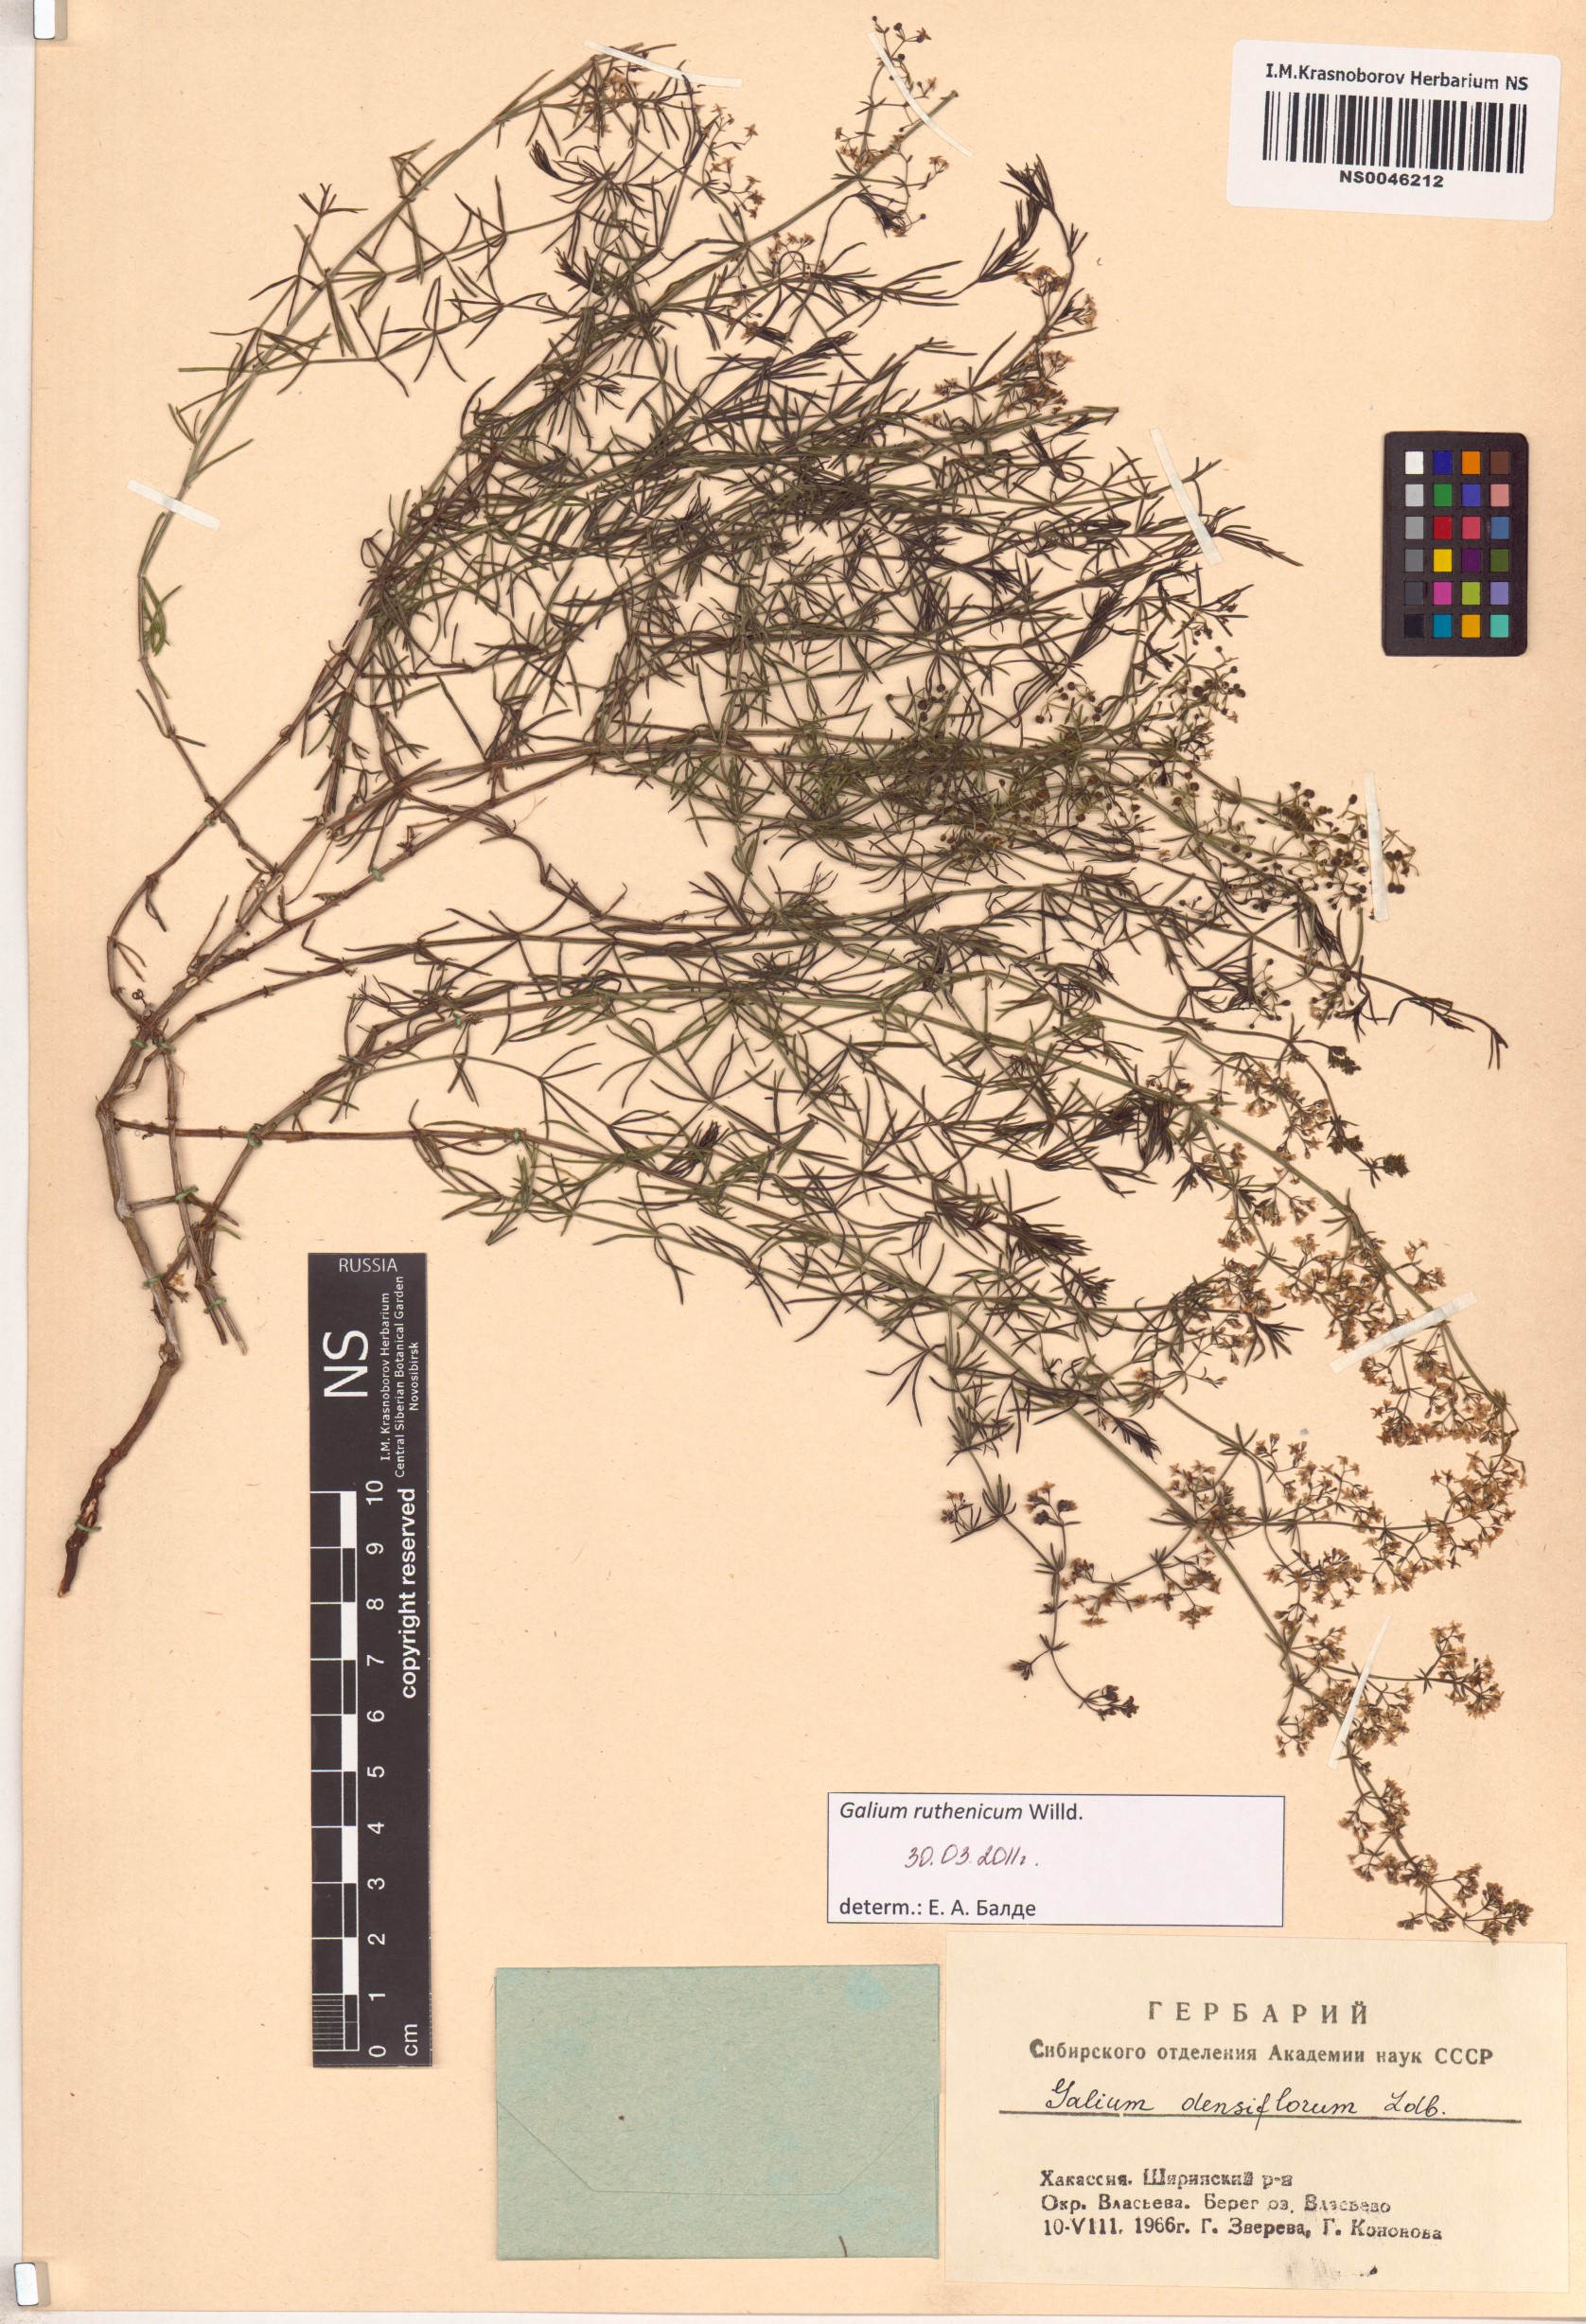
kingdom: Plantae
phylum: Tracheophyta
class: Magnoliopsida
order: Gentianales
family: Rubiaceae
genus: Galium
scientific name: Galium verum
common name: Lady's bedstraw
